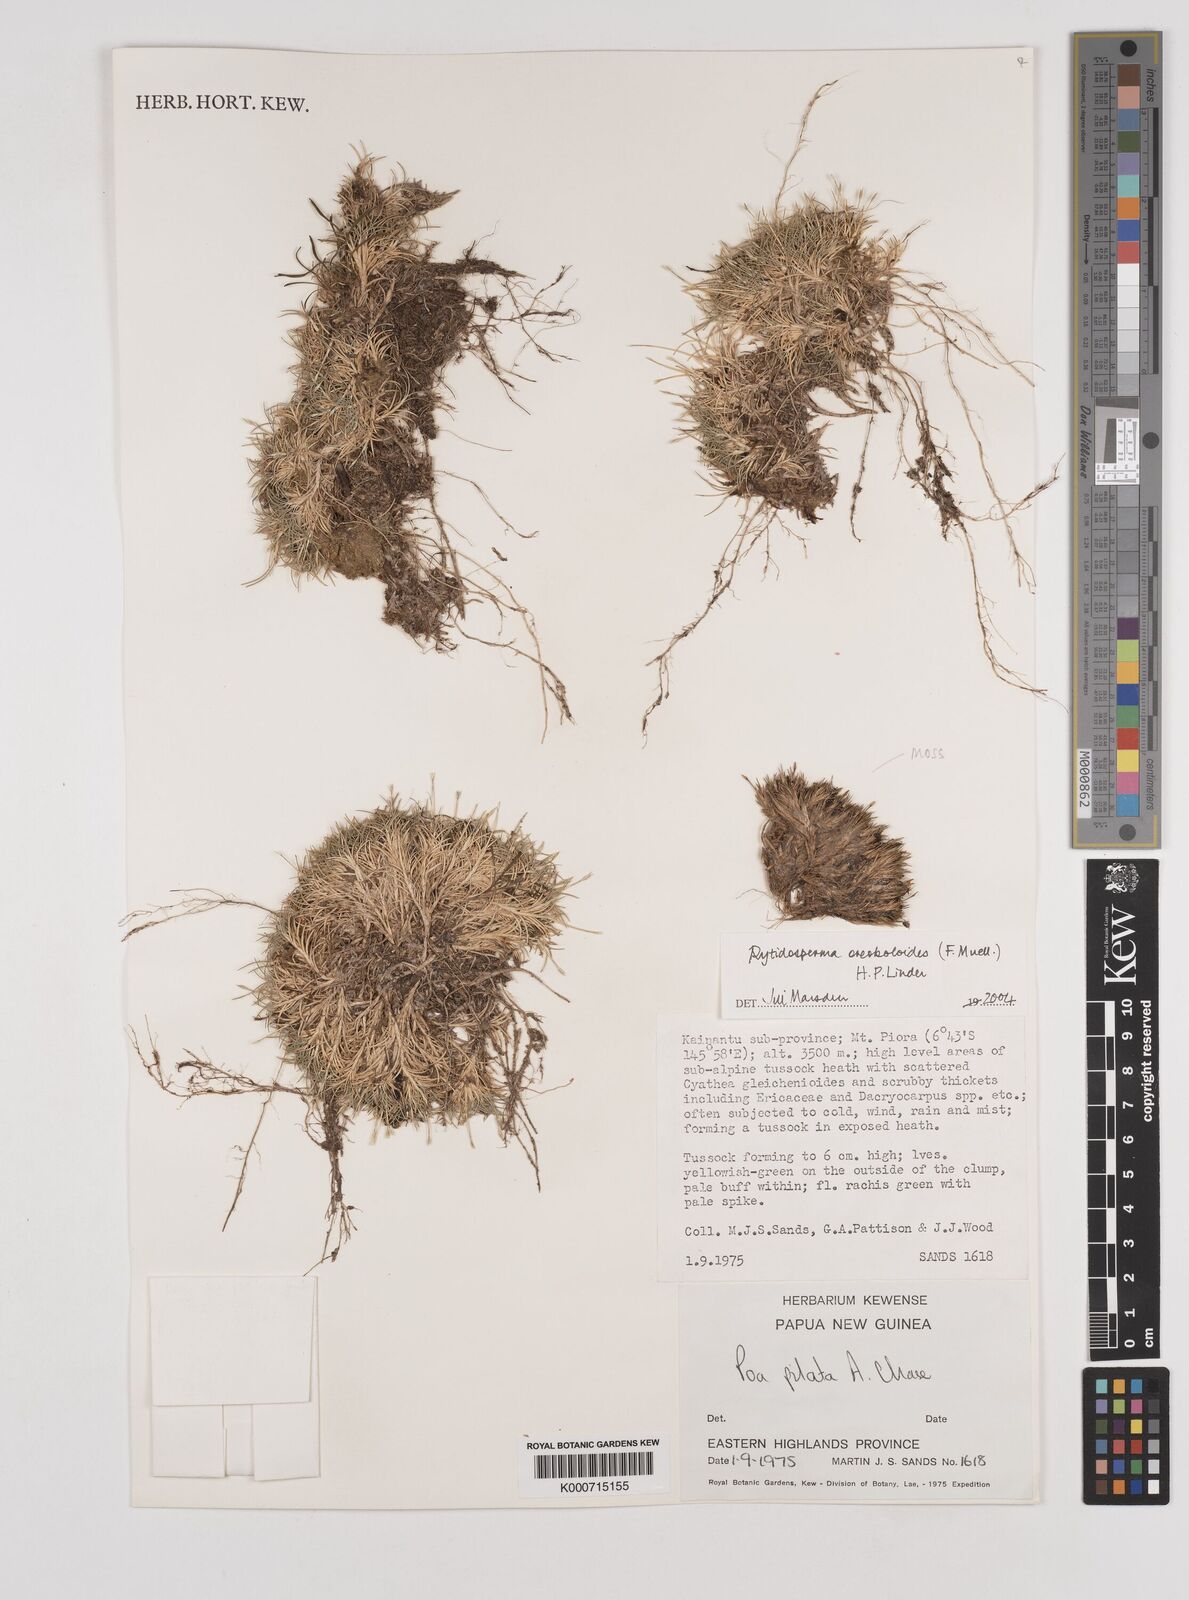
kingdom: Plantae
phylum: Tracheophyta
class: Liliopsida
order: Poales
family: Poaceae
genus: Rytidosperma
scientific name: Rytidosperma oreoboloides
